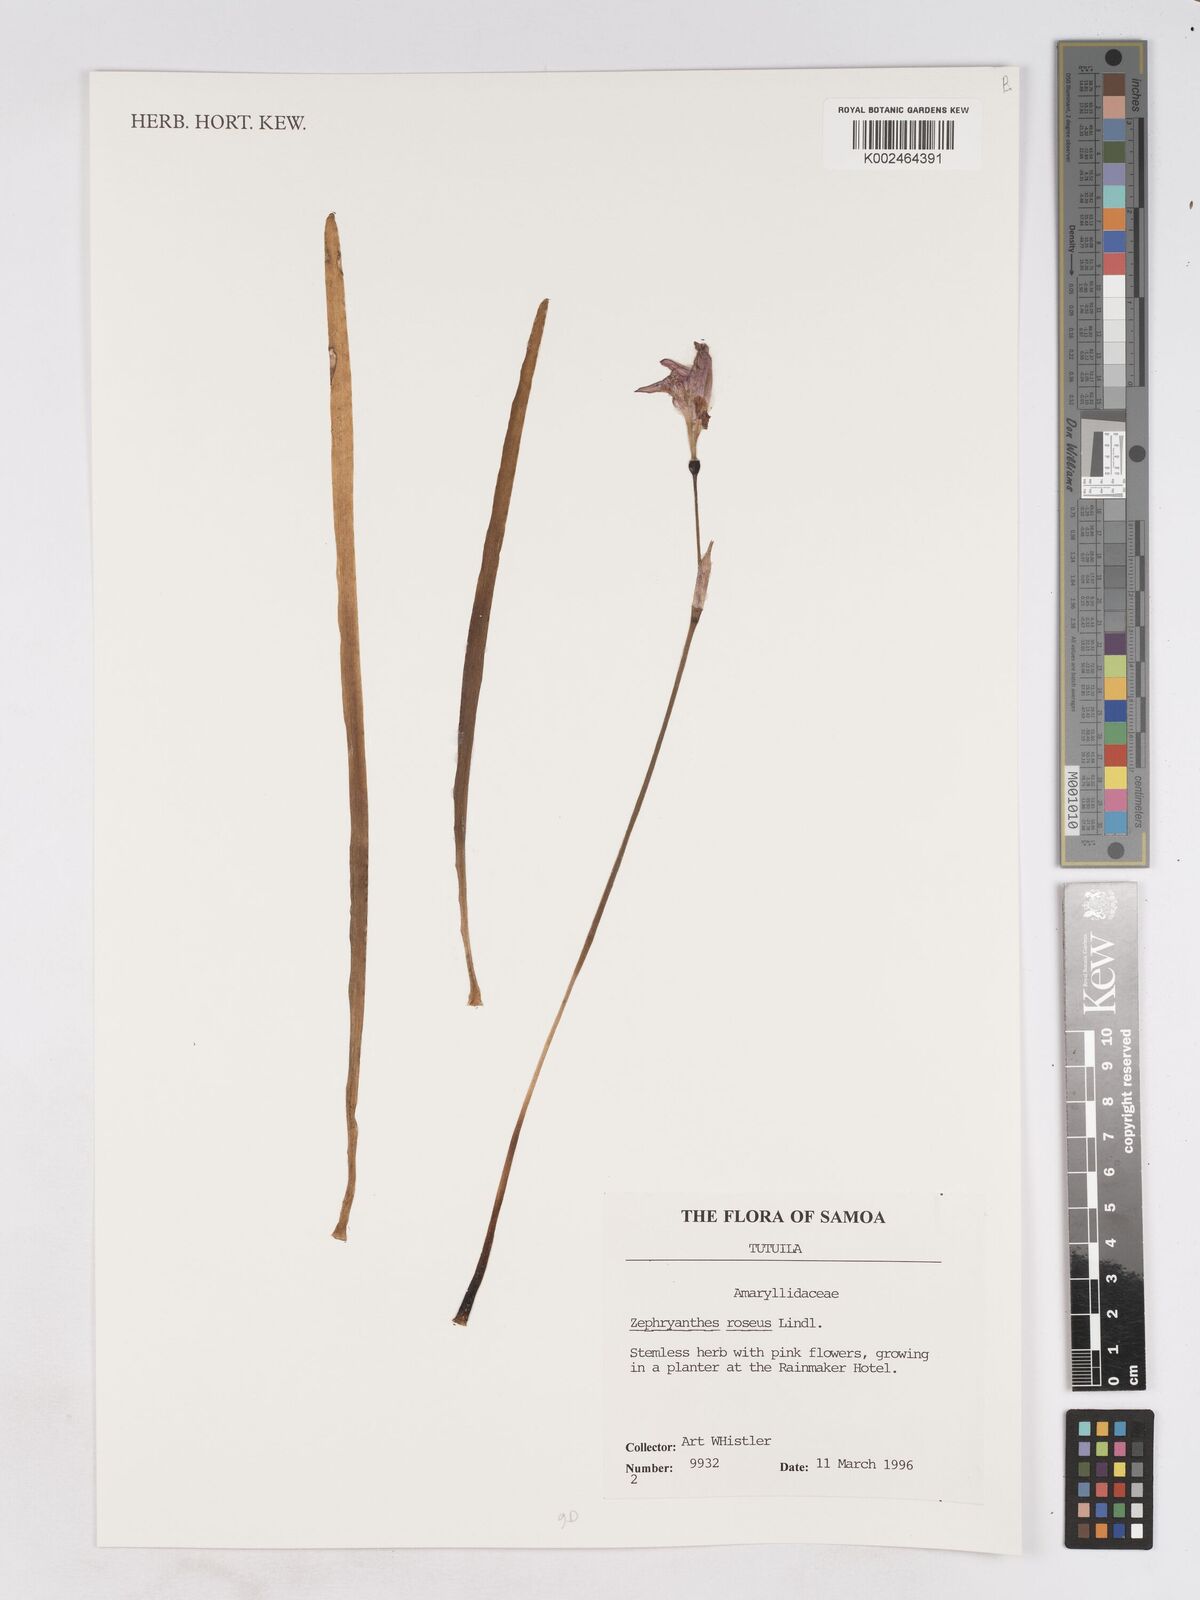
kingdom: Plantae
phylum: Tracheophyta
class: Liliopsida
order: Asparagales
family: Amaryllidaceae
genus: Zephyranthes
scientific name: Zephyranthes rosea
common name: Cuban zephyrlily
